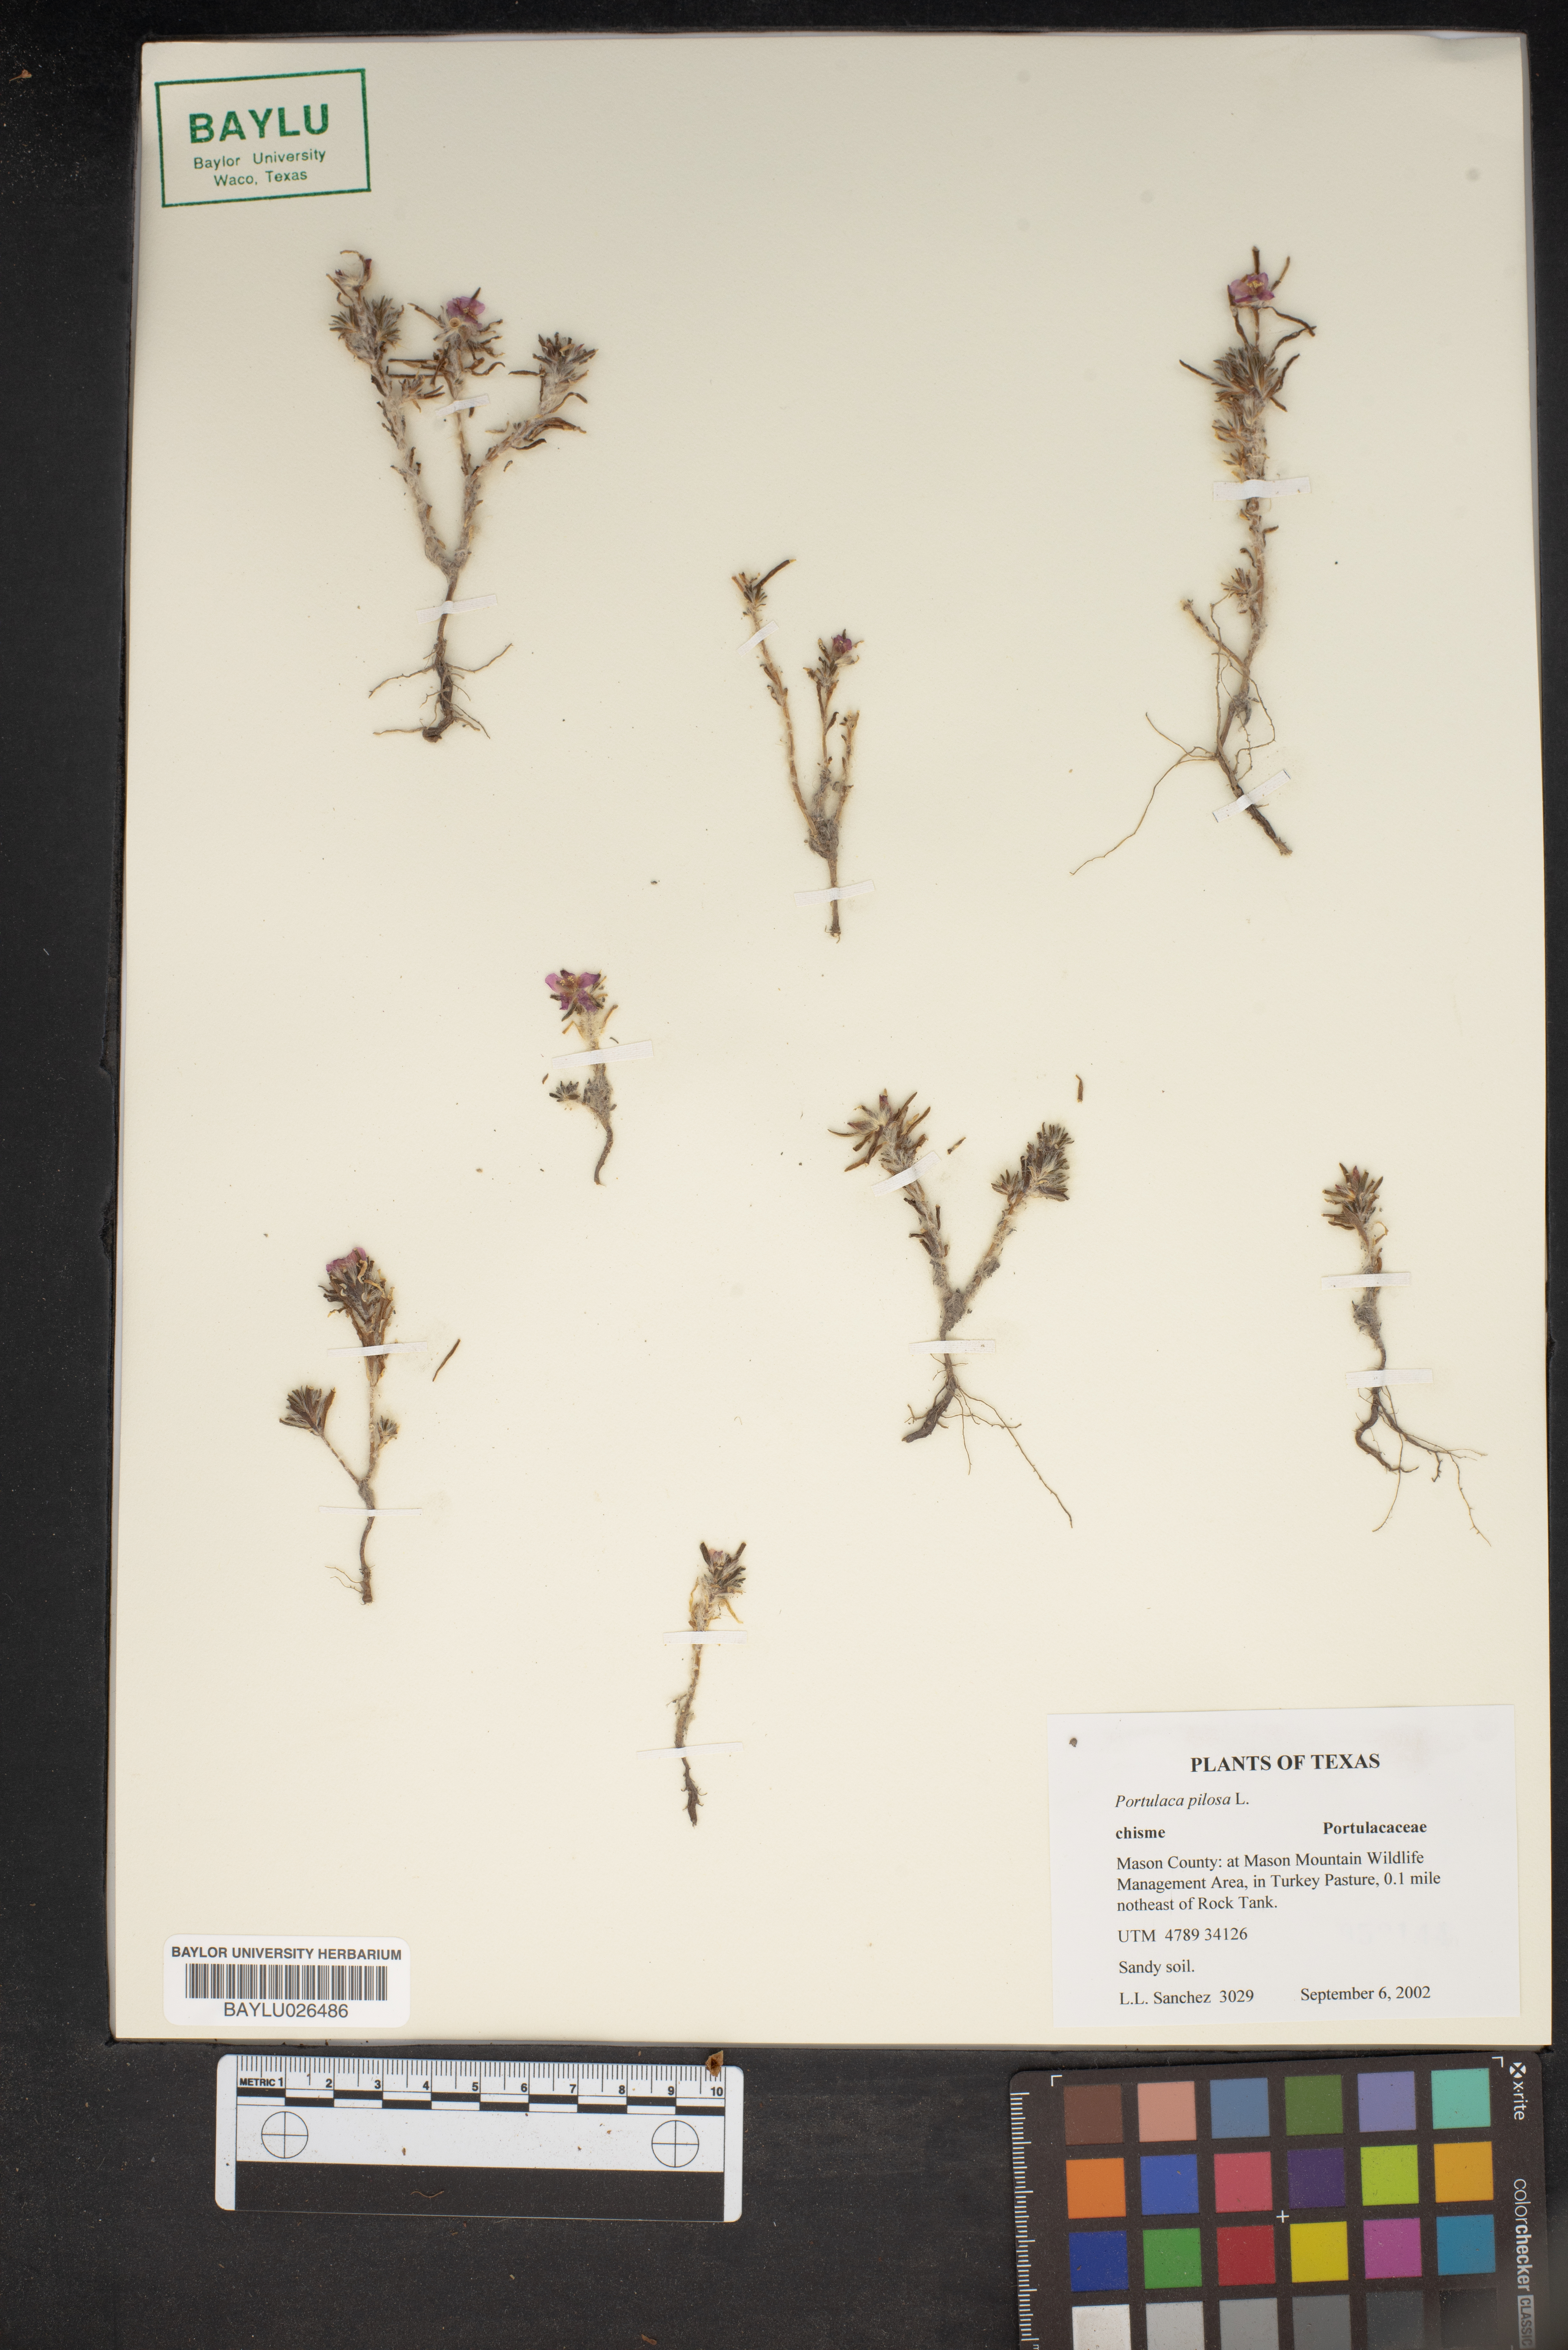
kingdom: Plantae
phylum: Tracheophyta
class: Magnoliopsida
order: Caryophyllales
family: Portulacaceae
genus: Portulaca
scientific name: Portulaca pilosa
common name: Kiss me quick
